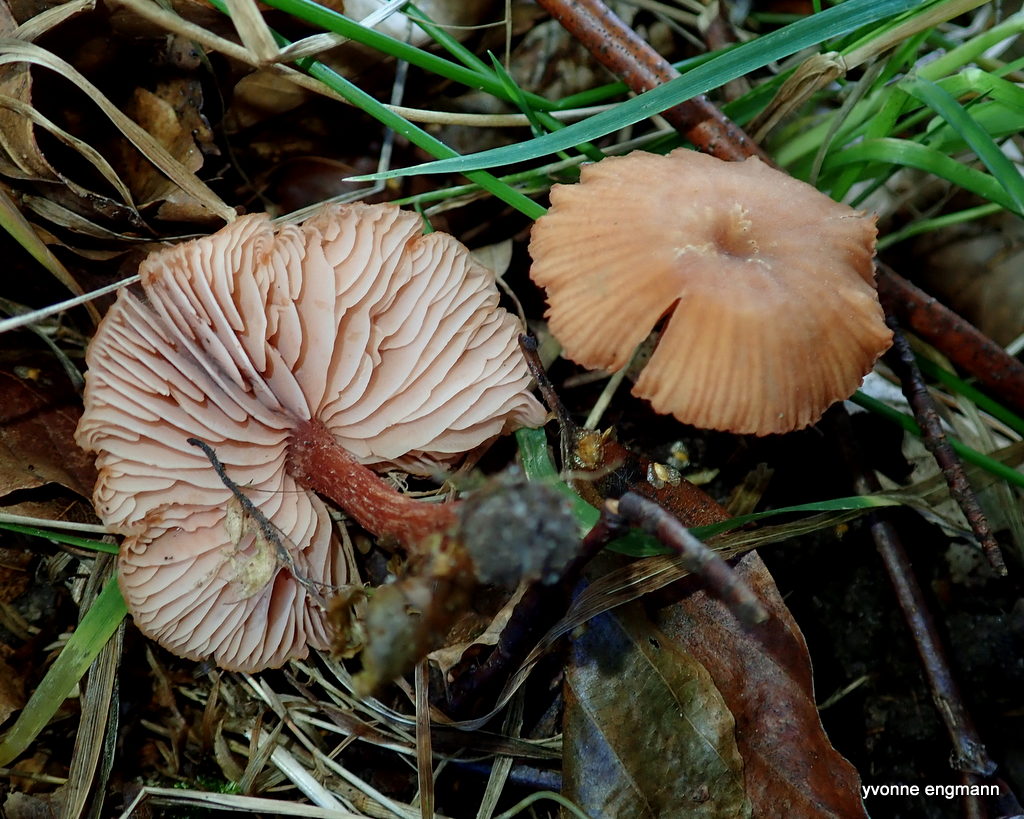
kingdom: Fungi
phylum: Basidiomycota
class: Agaricomycetes
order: Agaricales
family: Hydnangiaceae
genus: Laccaria
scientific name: Laccaria laccata
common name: rød ametysthat
